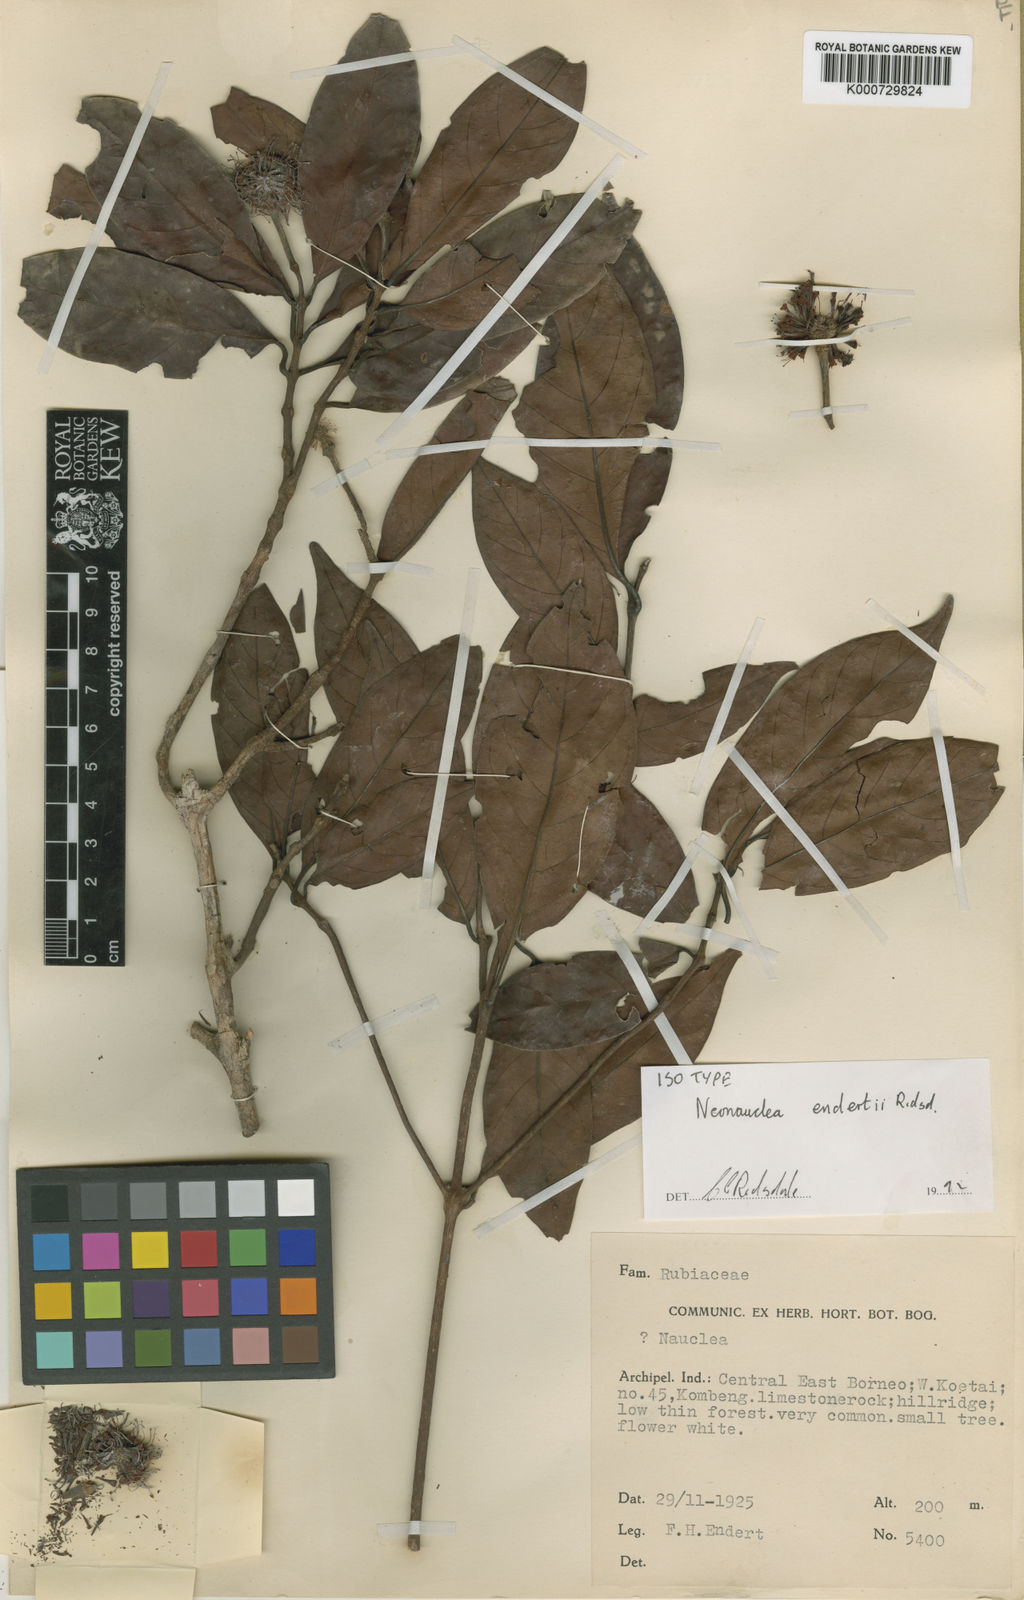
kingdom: Plantae
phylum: Tracheophyta
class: Magnoliopsida
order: Gentianales
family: Rubiaceae
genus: Neonauclea
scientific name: Neonauclea endertii
